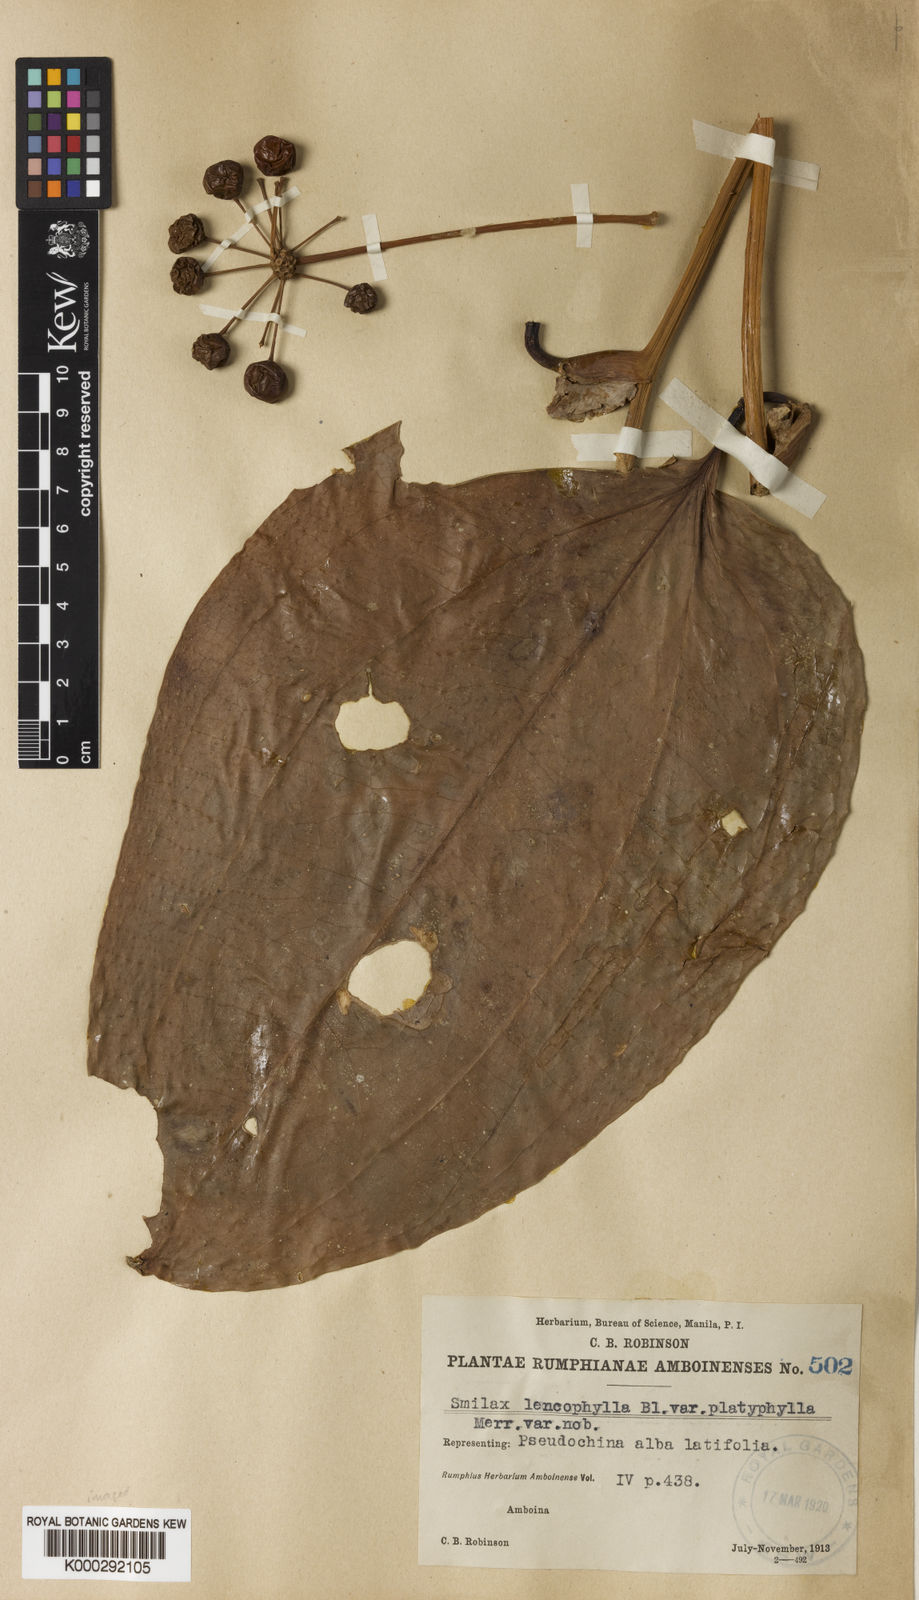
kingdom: Plantae
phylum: Tracheophyta
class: Liliopsida
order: Liliales
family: Smilacaceae
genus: Smilax
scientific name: Smilax leucophylla
